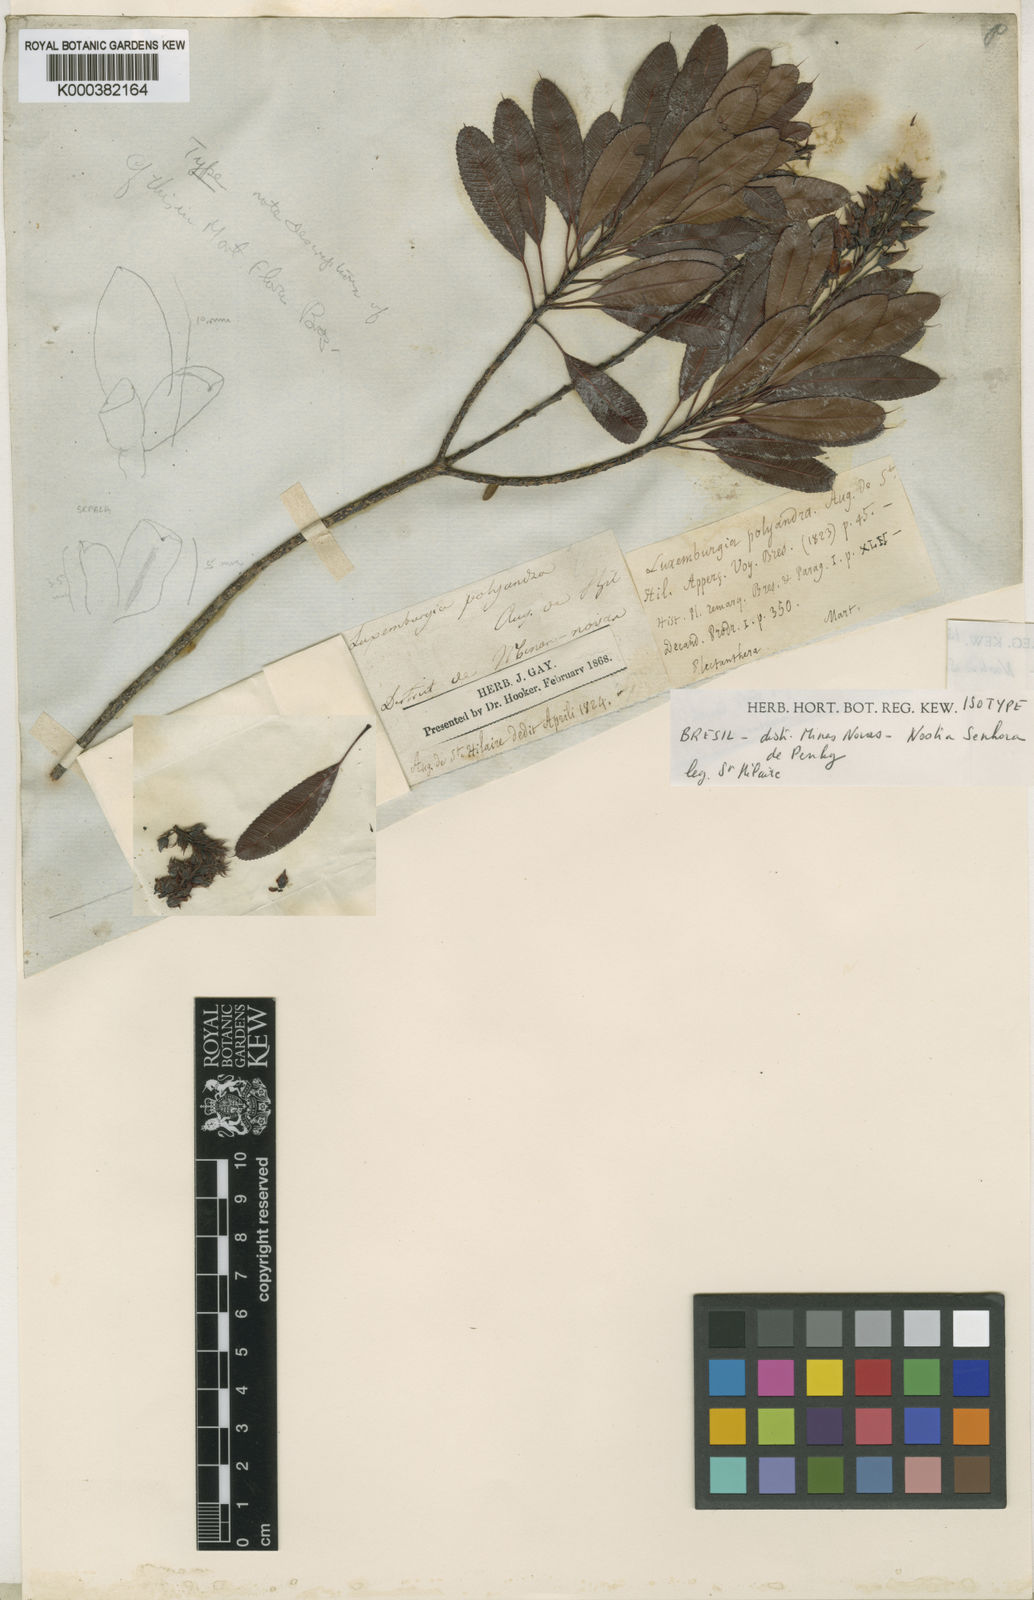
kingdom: Plantae
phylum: Tracheophyta
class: Magnoliopsida
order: Malpighiales
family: Ochnaceae
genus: Luxemburgia
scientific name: Luxemburgia ciliosa
